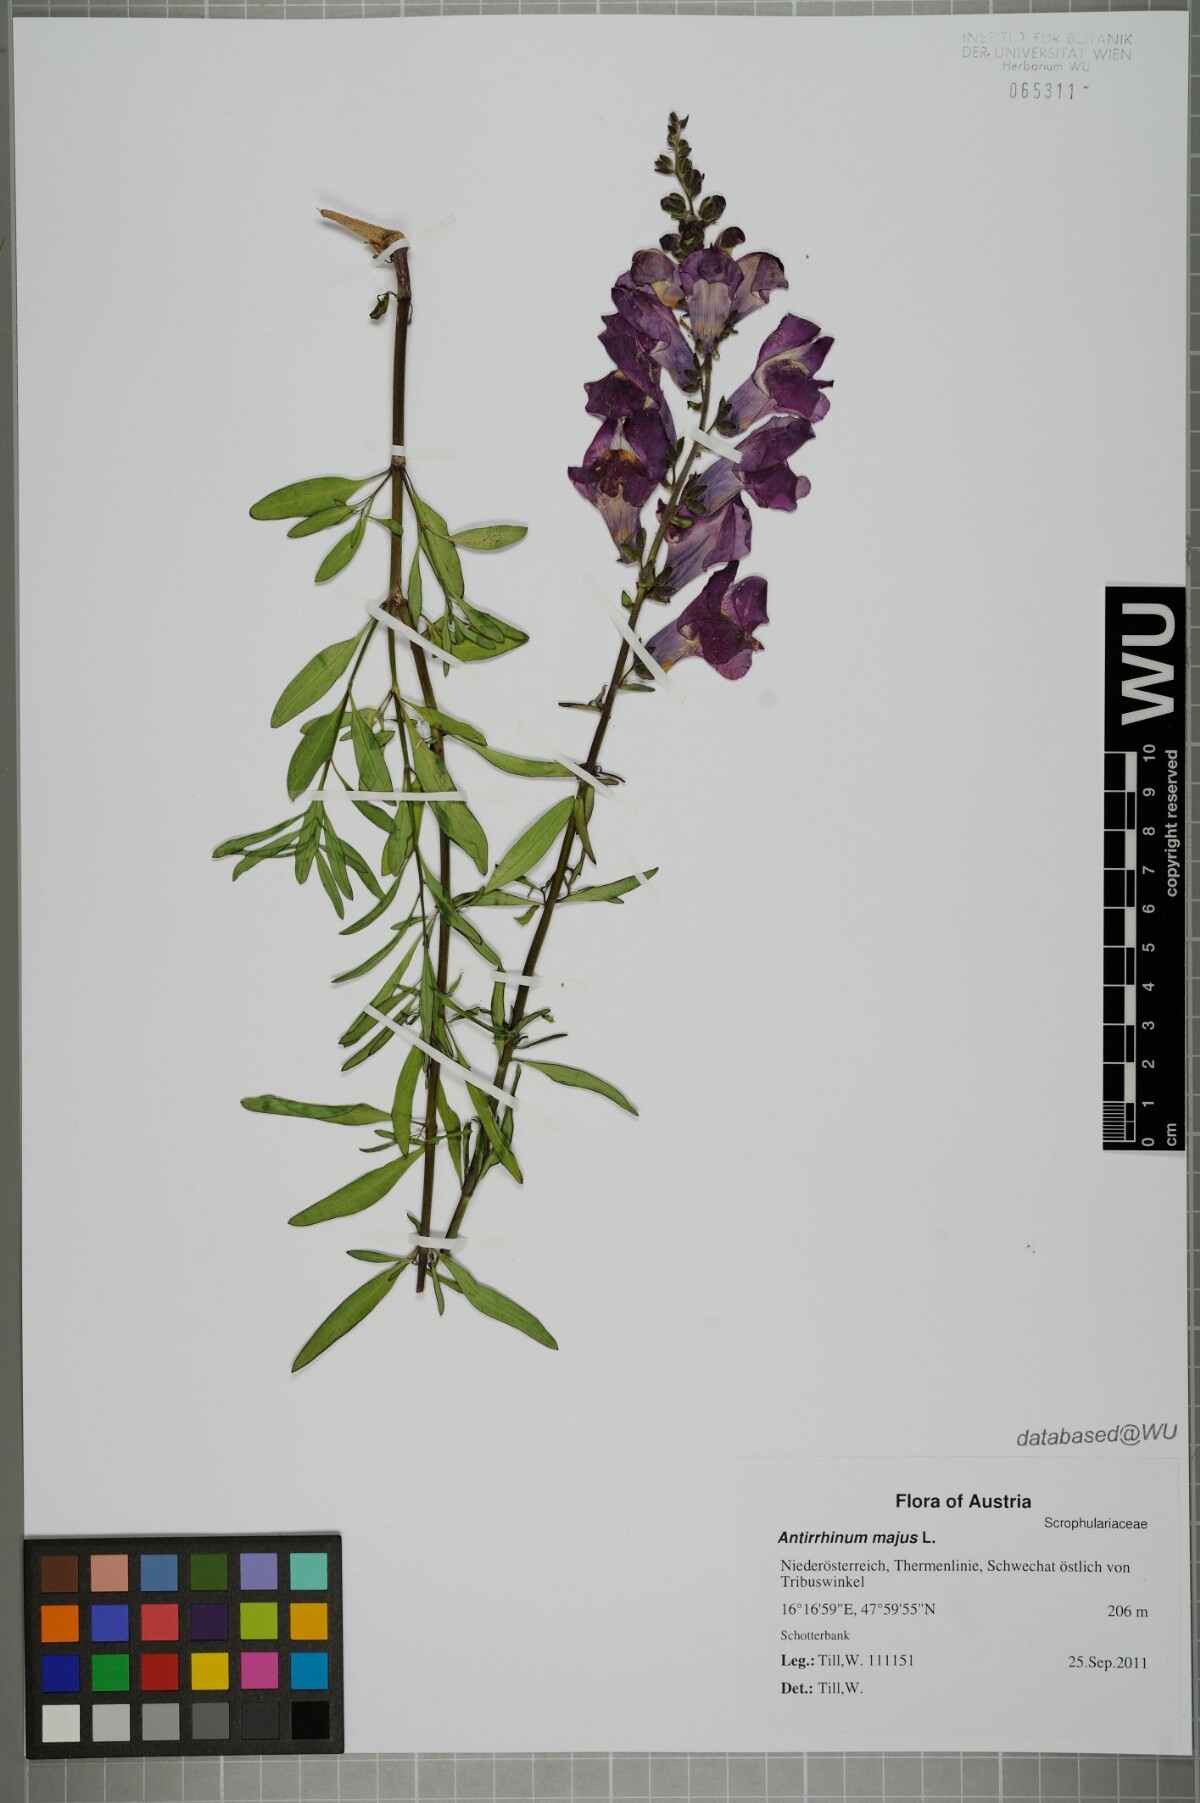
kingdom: Plantae
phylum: Tracheophyta
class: Magnoliopsida
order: Lamiales
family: Plantaginaceae
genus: Antirrhinum
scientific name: Antirrhinum majus
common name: Snapdragon
